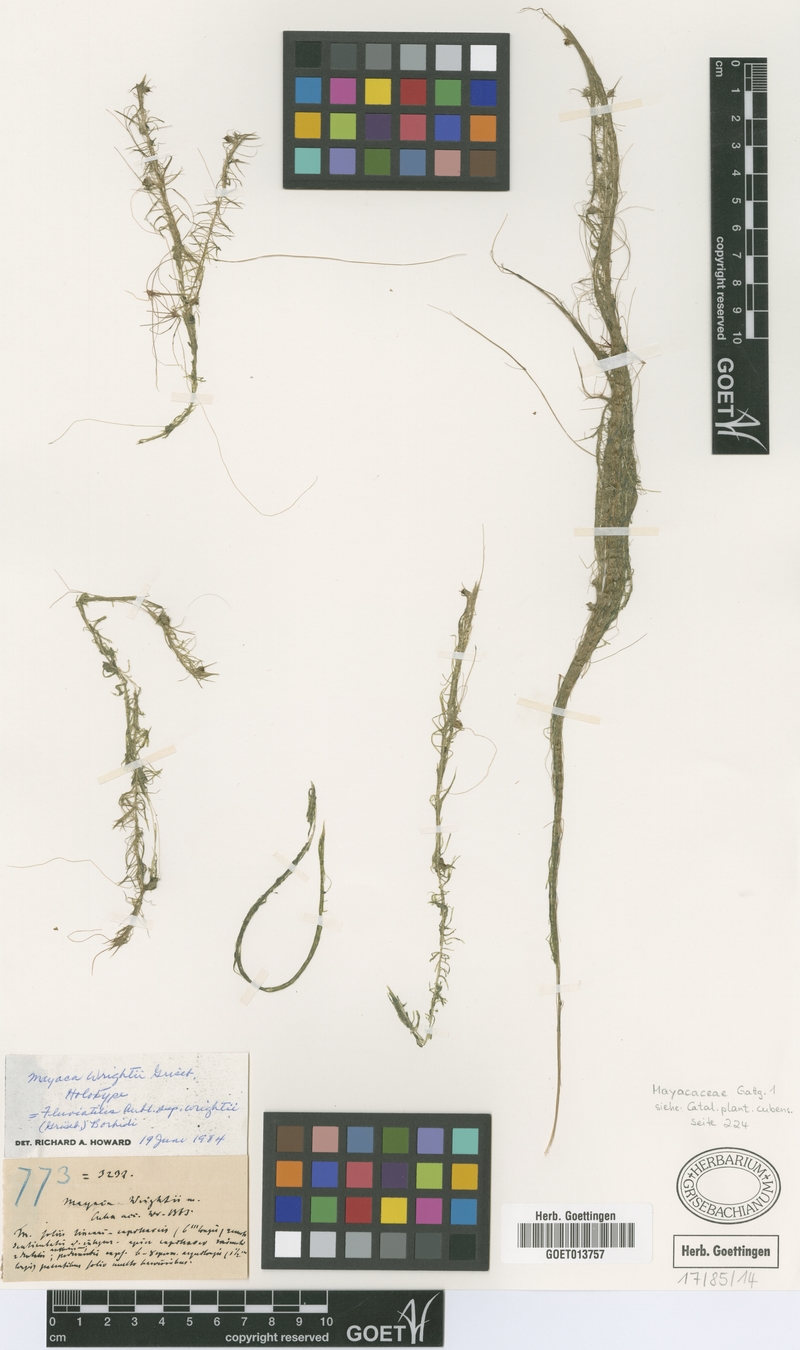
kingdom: Plantae
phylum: Tracheophyta
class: Liliopsida
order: Poales
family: Mayacaceae
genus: Mayaca
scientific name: Mayaca fluviatilis
